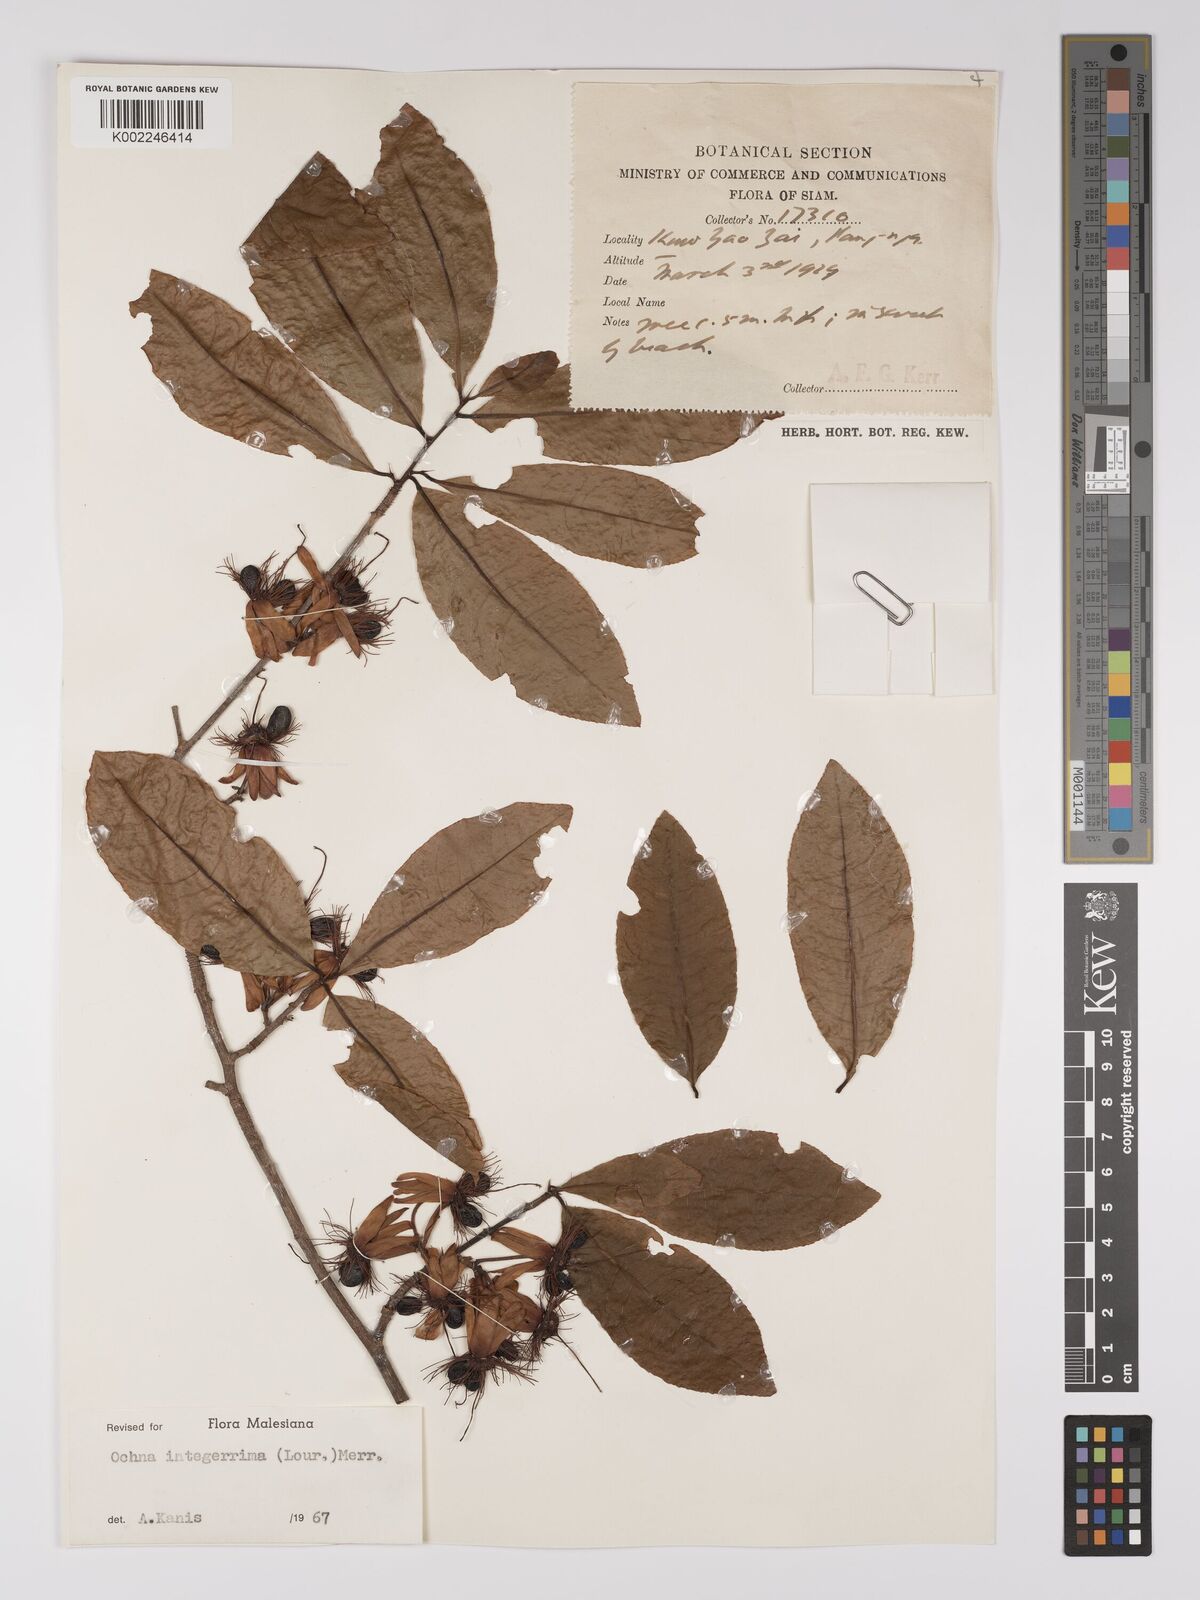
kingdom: Plantae
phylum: Tracheophyta
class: Magnoliopsida
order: Malpighiales
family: Ochnaceae
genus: Ochna
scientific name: Ochna integerrima
